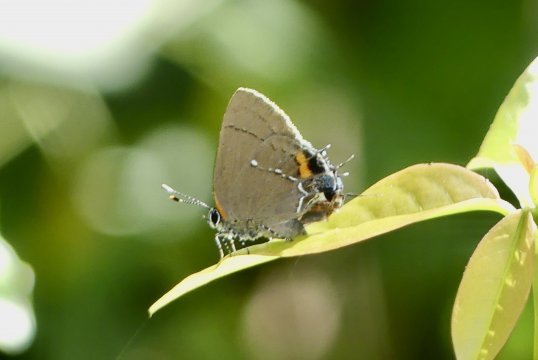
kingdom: Animalia
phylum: Arthropoda
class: Insecta
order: Lepidoptera
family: Lycaenidae
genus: Thecla
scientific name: Thecla angelia
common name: Fulvous Hairstreak
